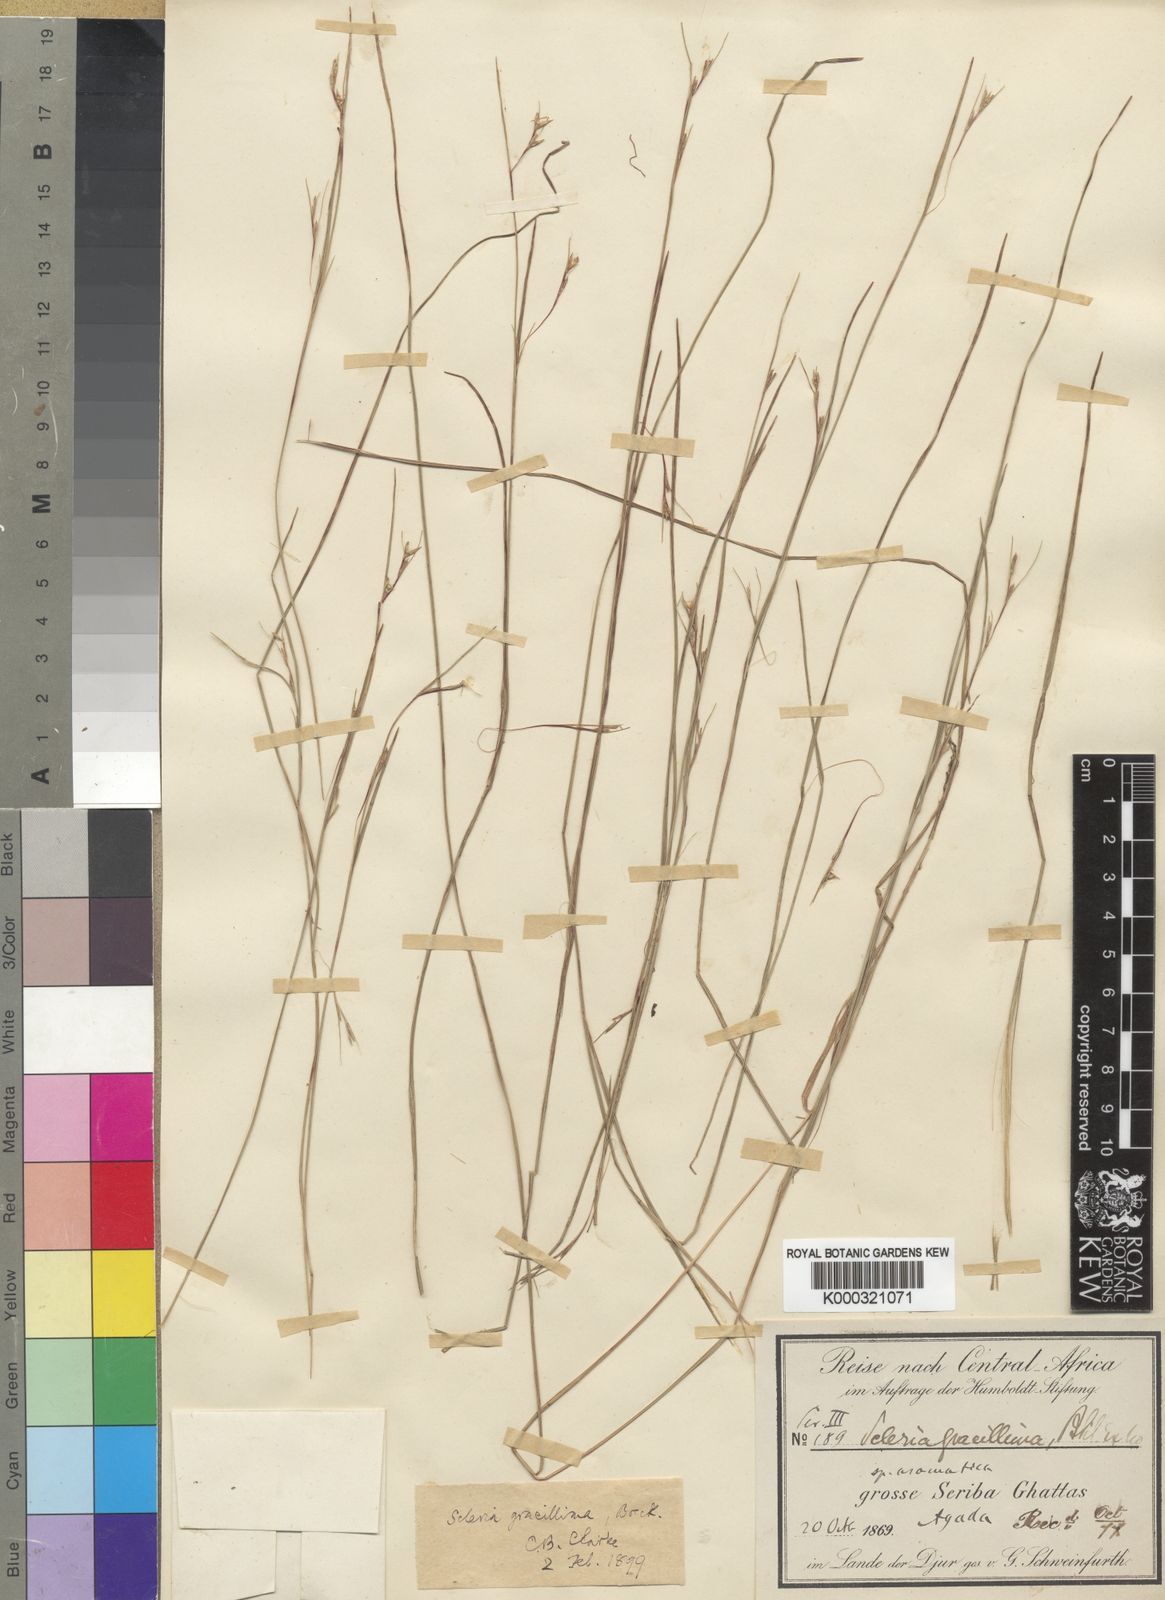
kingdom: Plantae
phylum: Tracheophyta
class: Liliopsida
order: Poales
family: Cyperaceae
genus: Scleria
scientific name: Scleria gracillima
